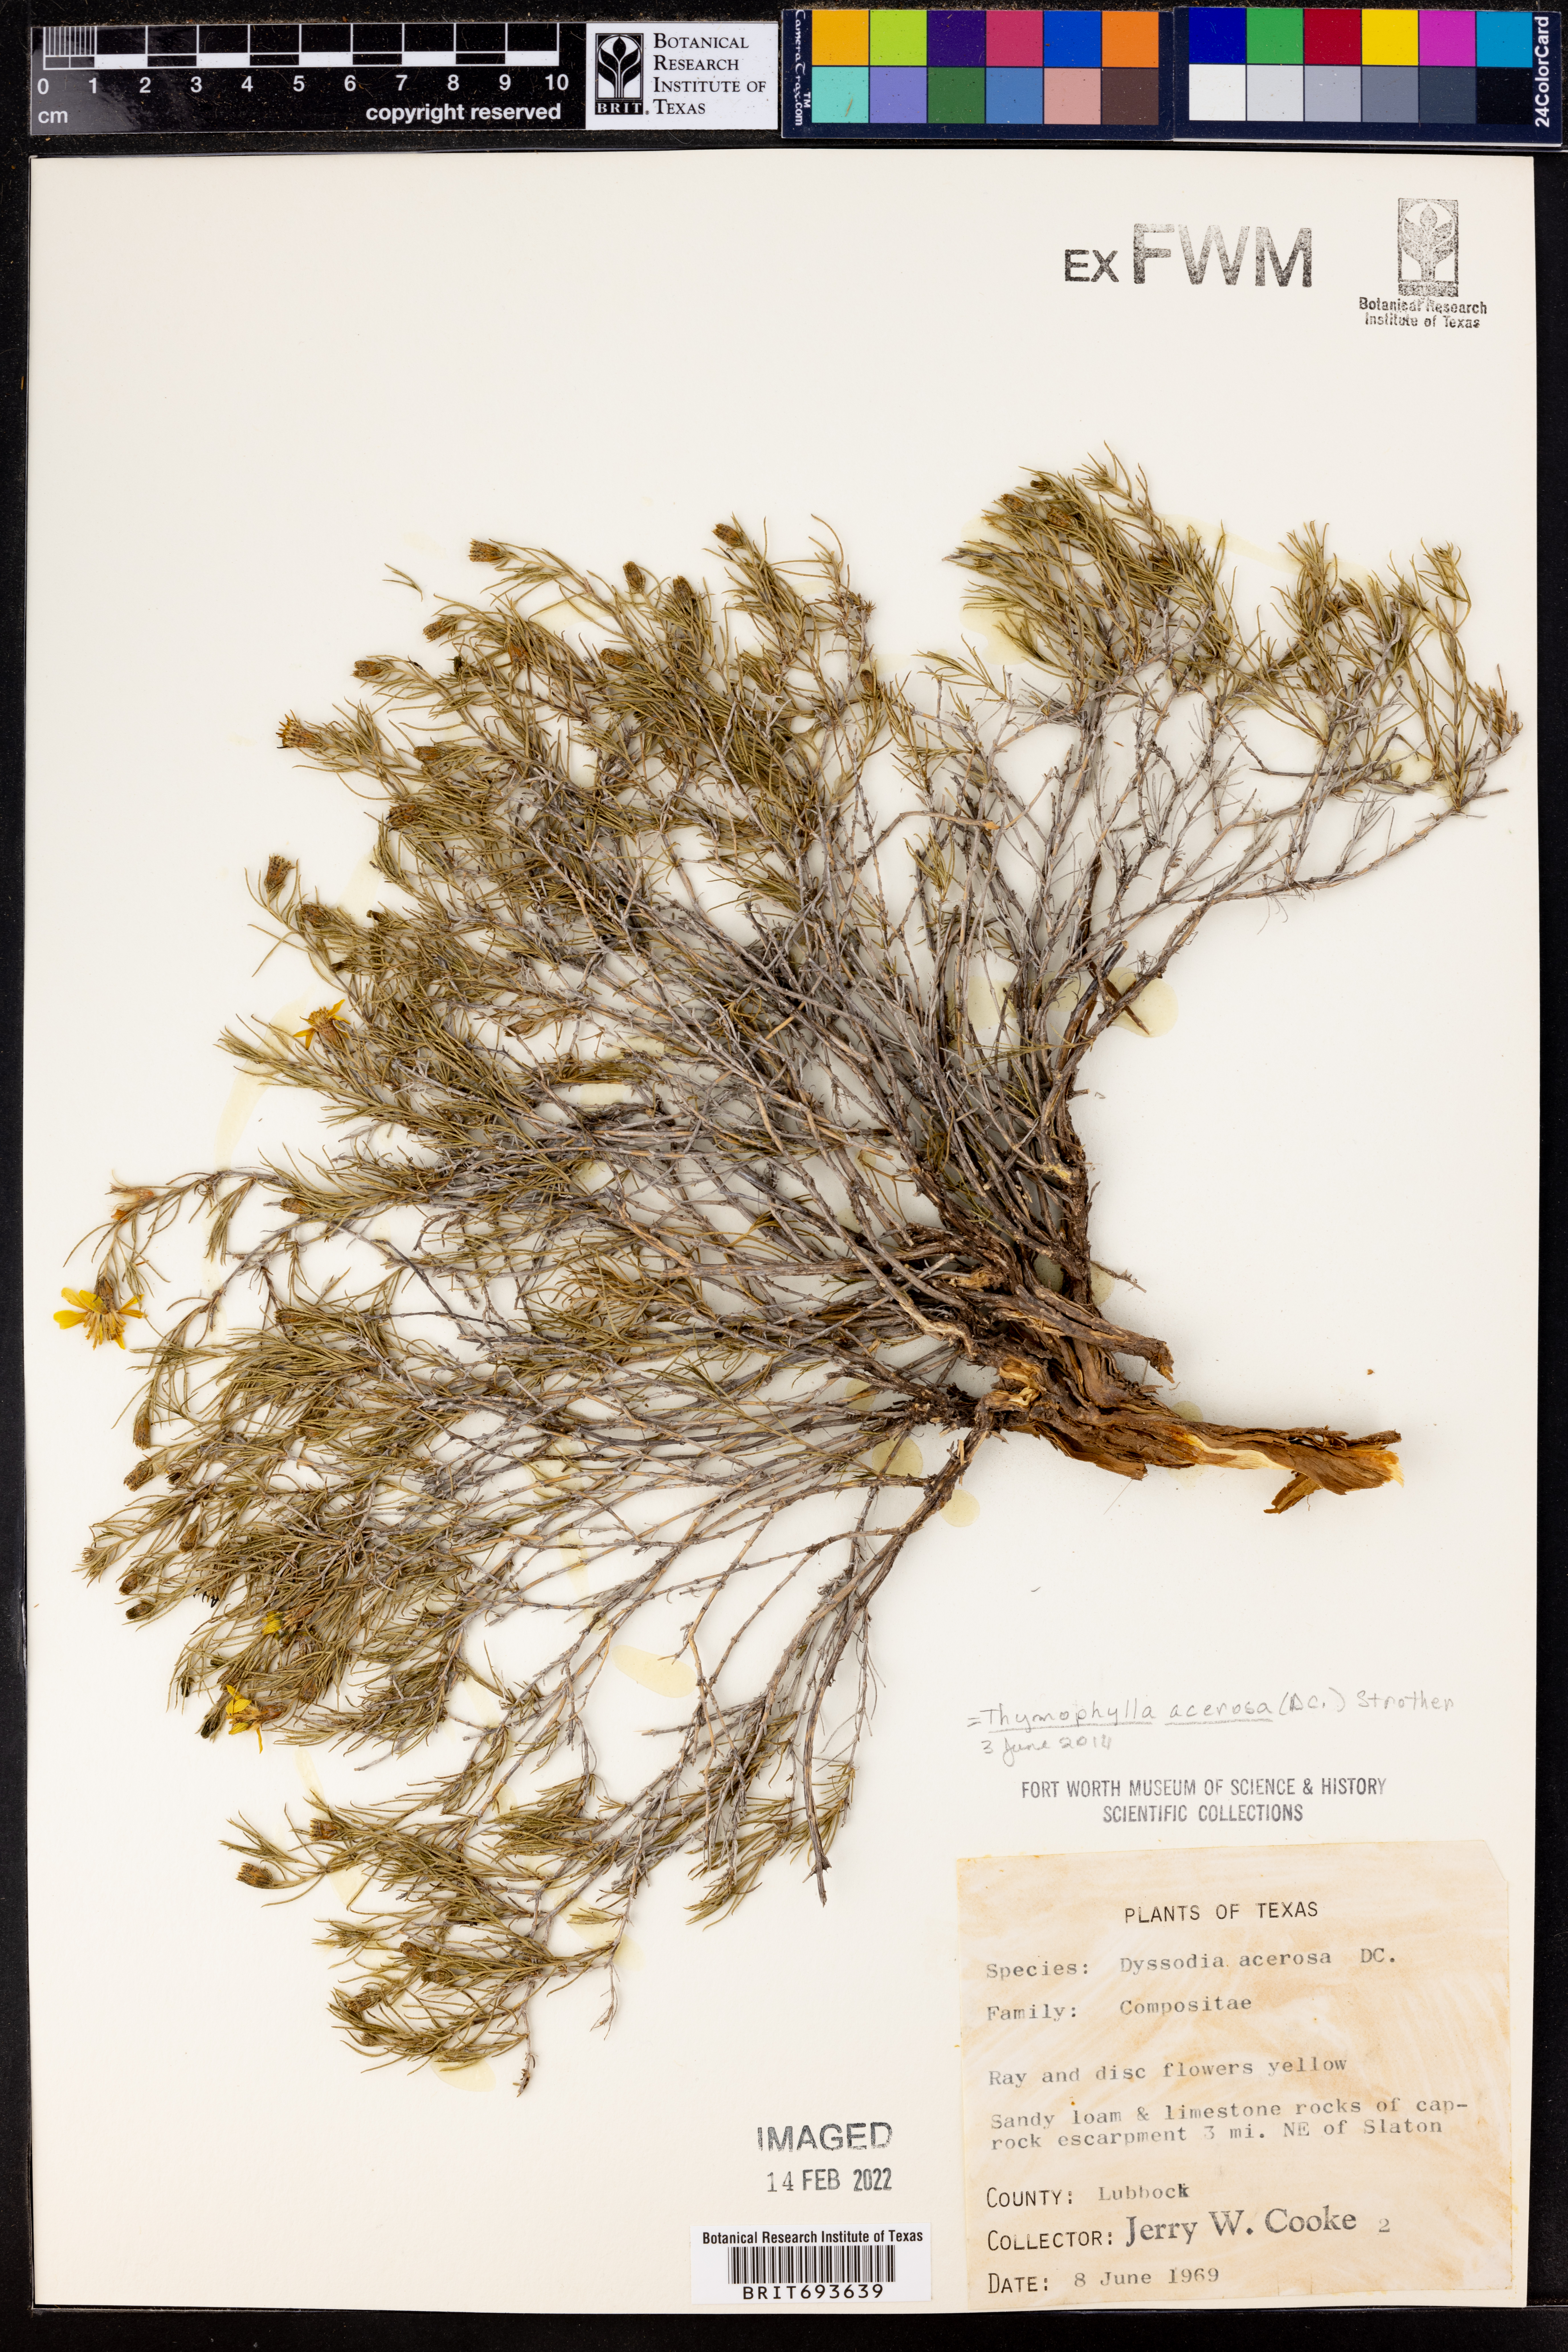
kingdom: Plantae
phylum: Tracheophyta
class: Magnoliopsida
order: Asterales
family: Asteraceae
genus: Thymophylla
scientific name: Thymophylla acerosa
